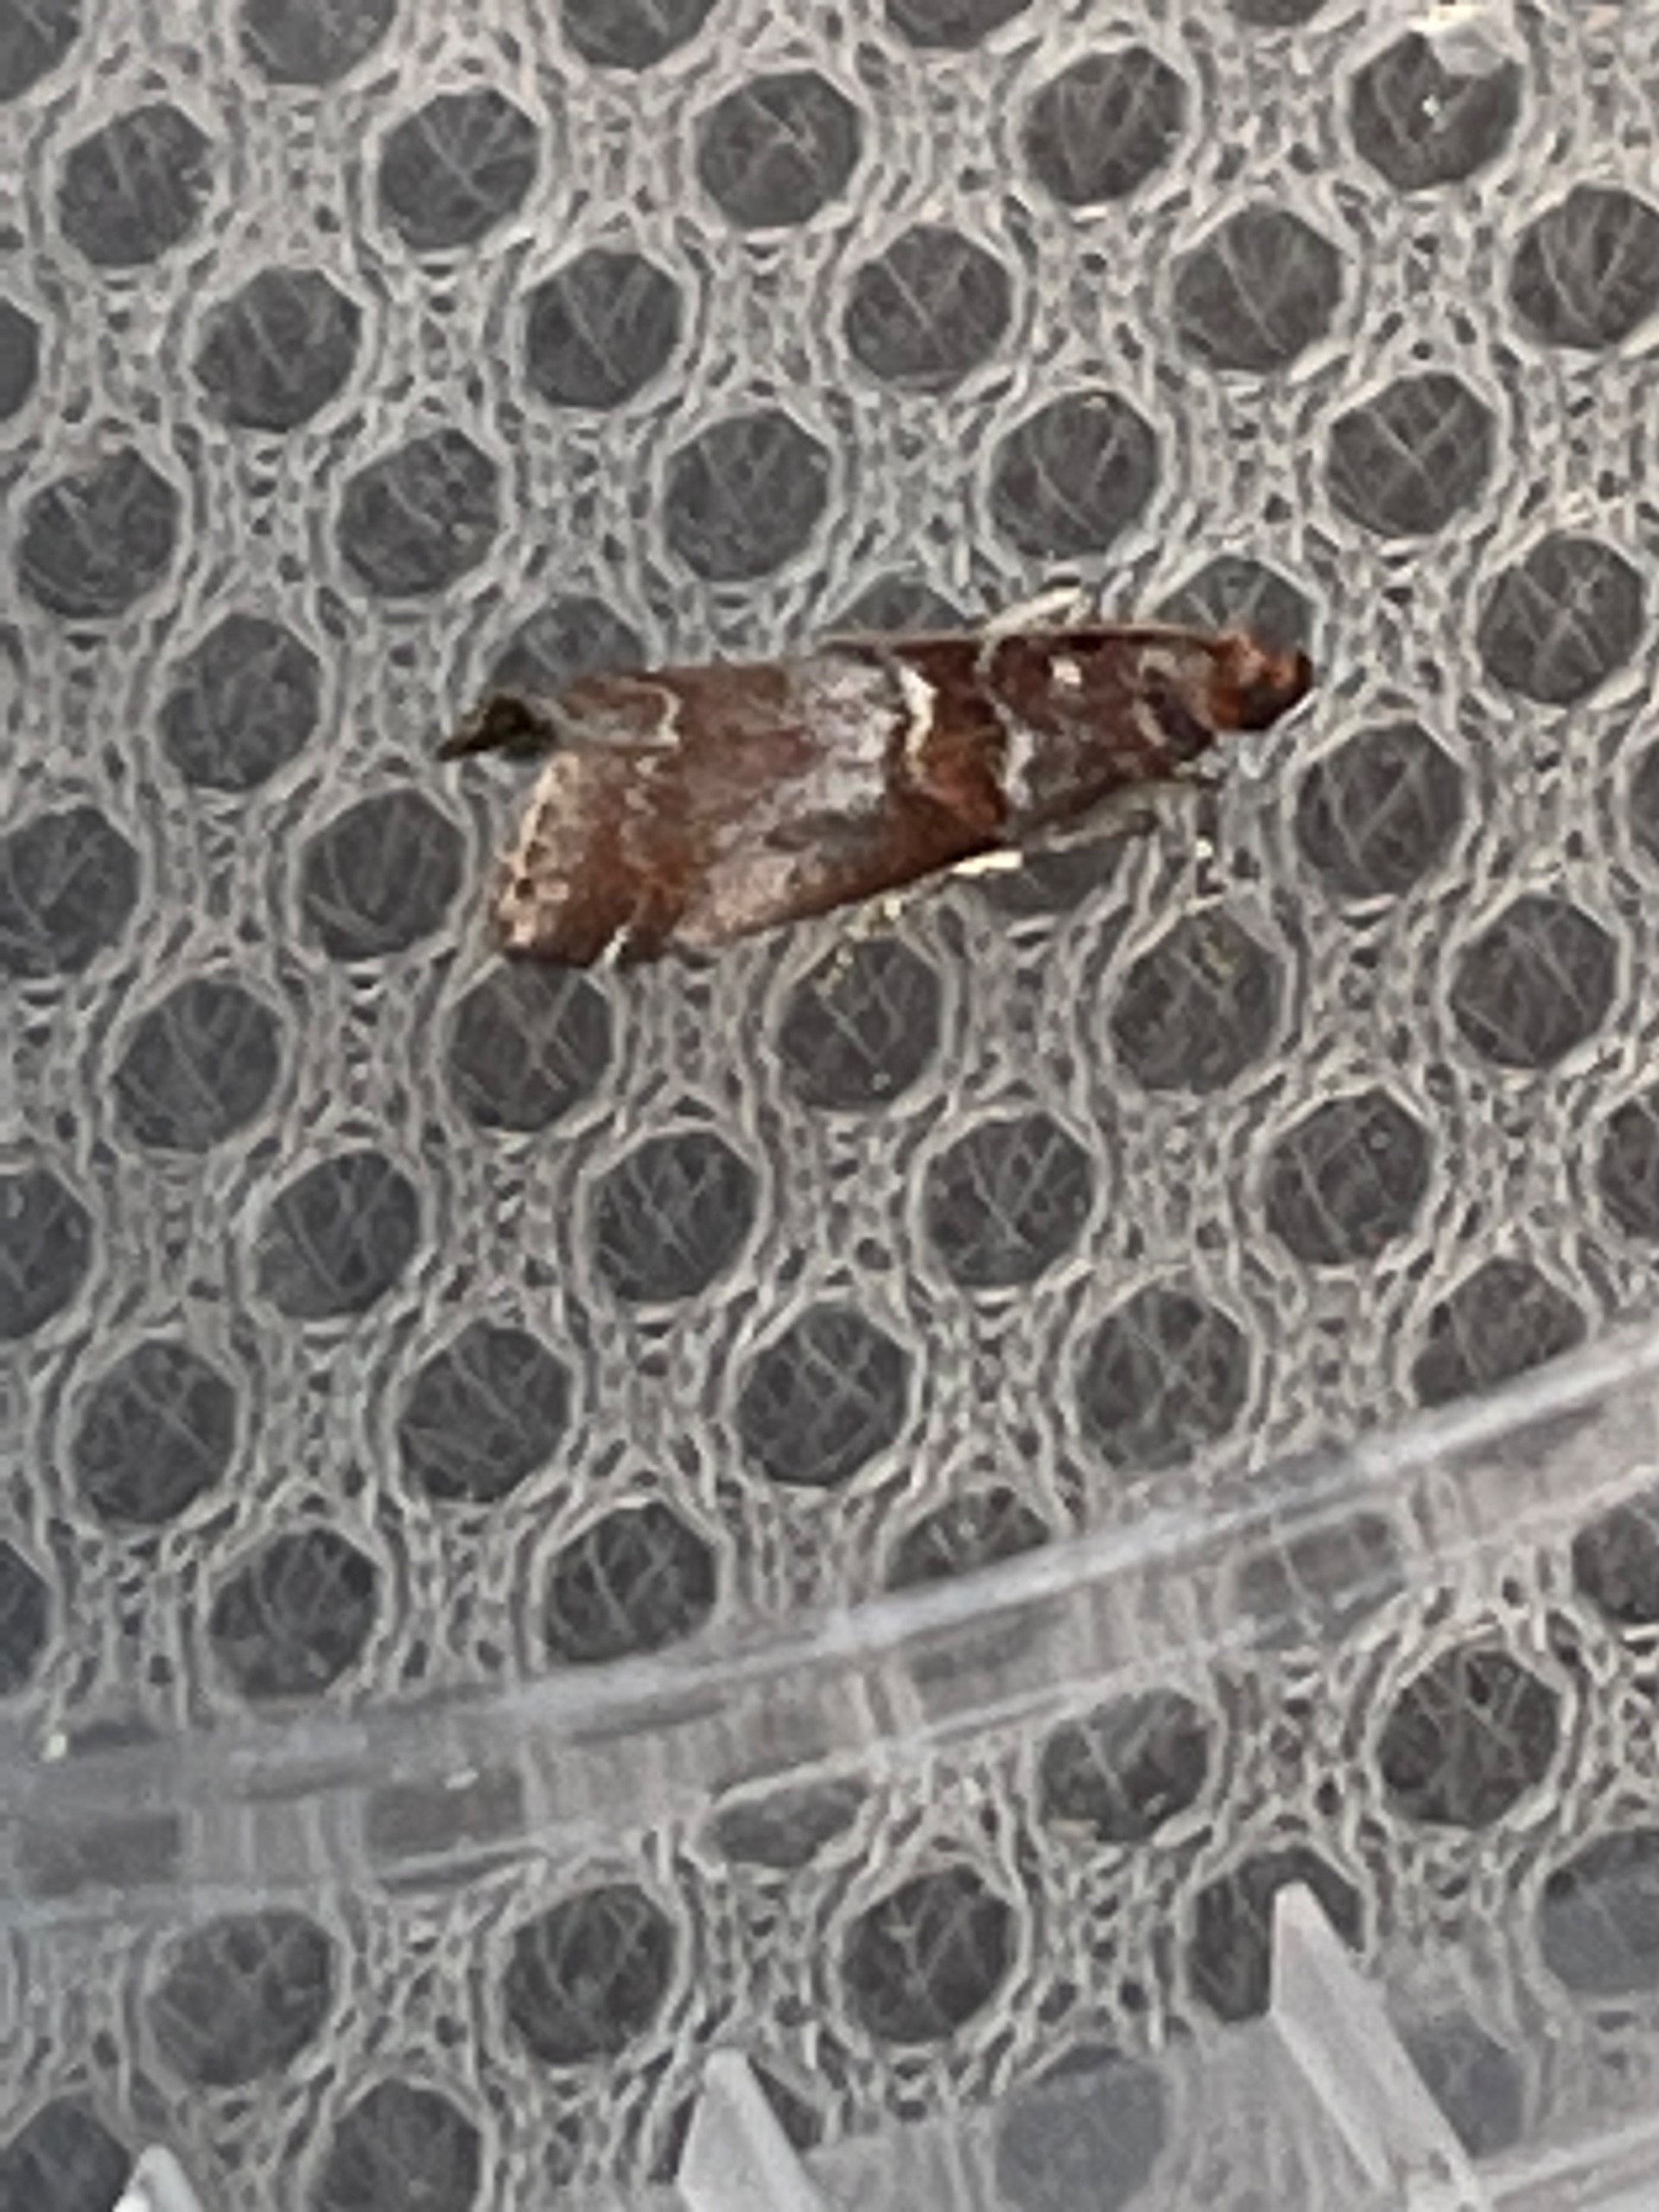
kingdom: Animalia
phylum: Arthropoda
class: Insecta
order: Lepidoptera
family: Pyralidae
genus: Acrobasis
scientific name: Acrobasis advenella
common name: Rønnehalvmøl
